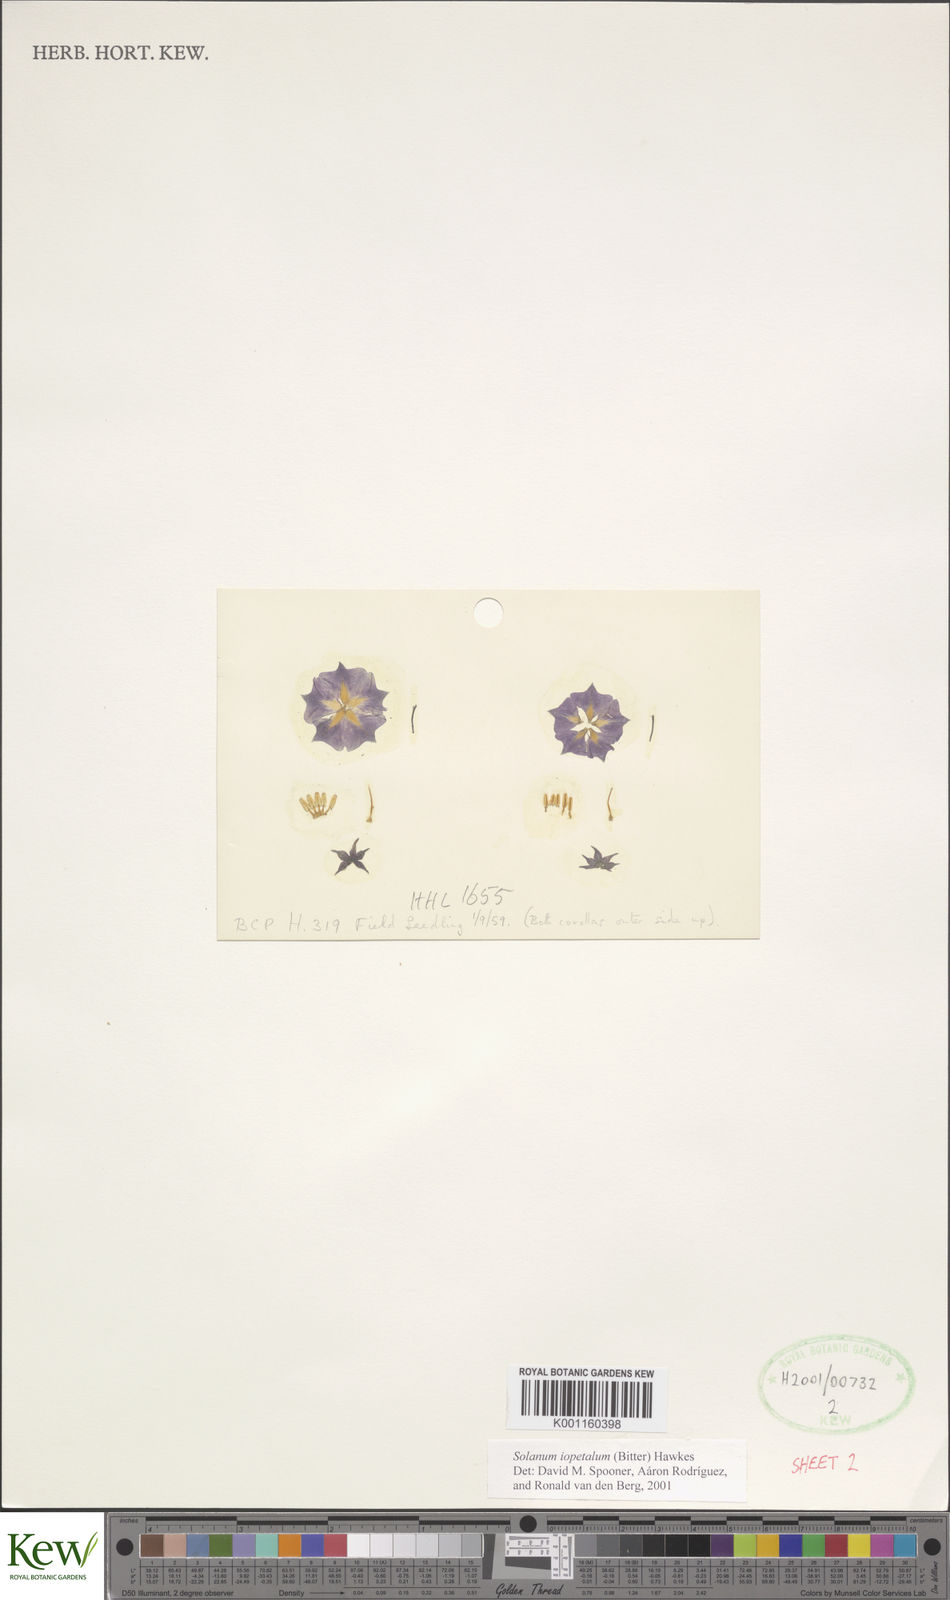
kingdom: Plantae
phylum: Tracheophyta
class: Magnoliopsida
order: Solanales
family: Solanaceae
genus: Solanum
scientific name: Solanum iopetalum
